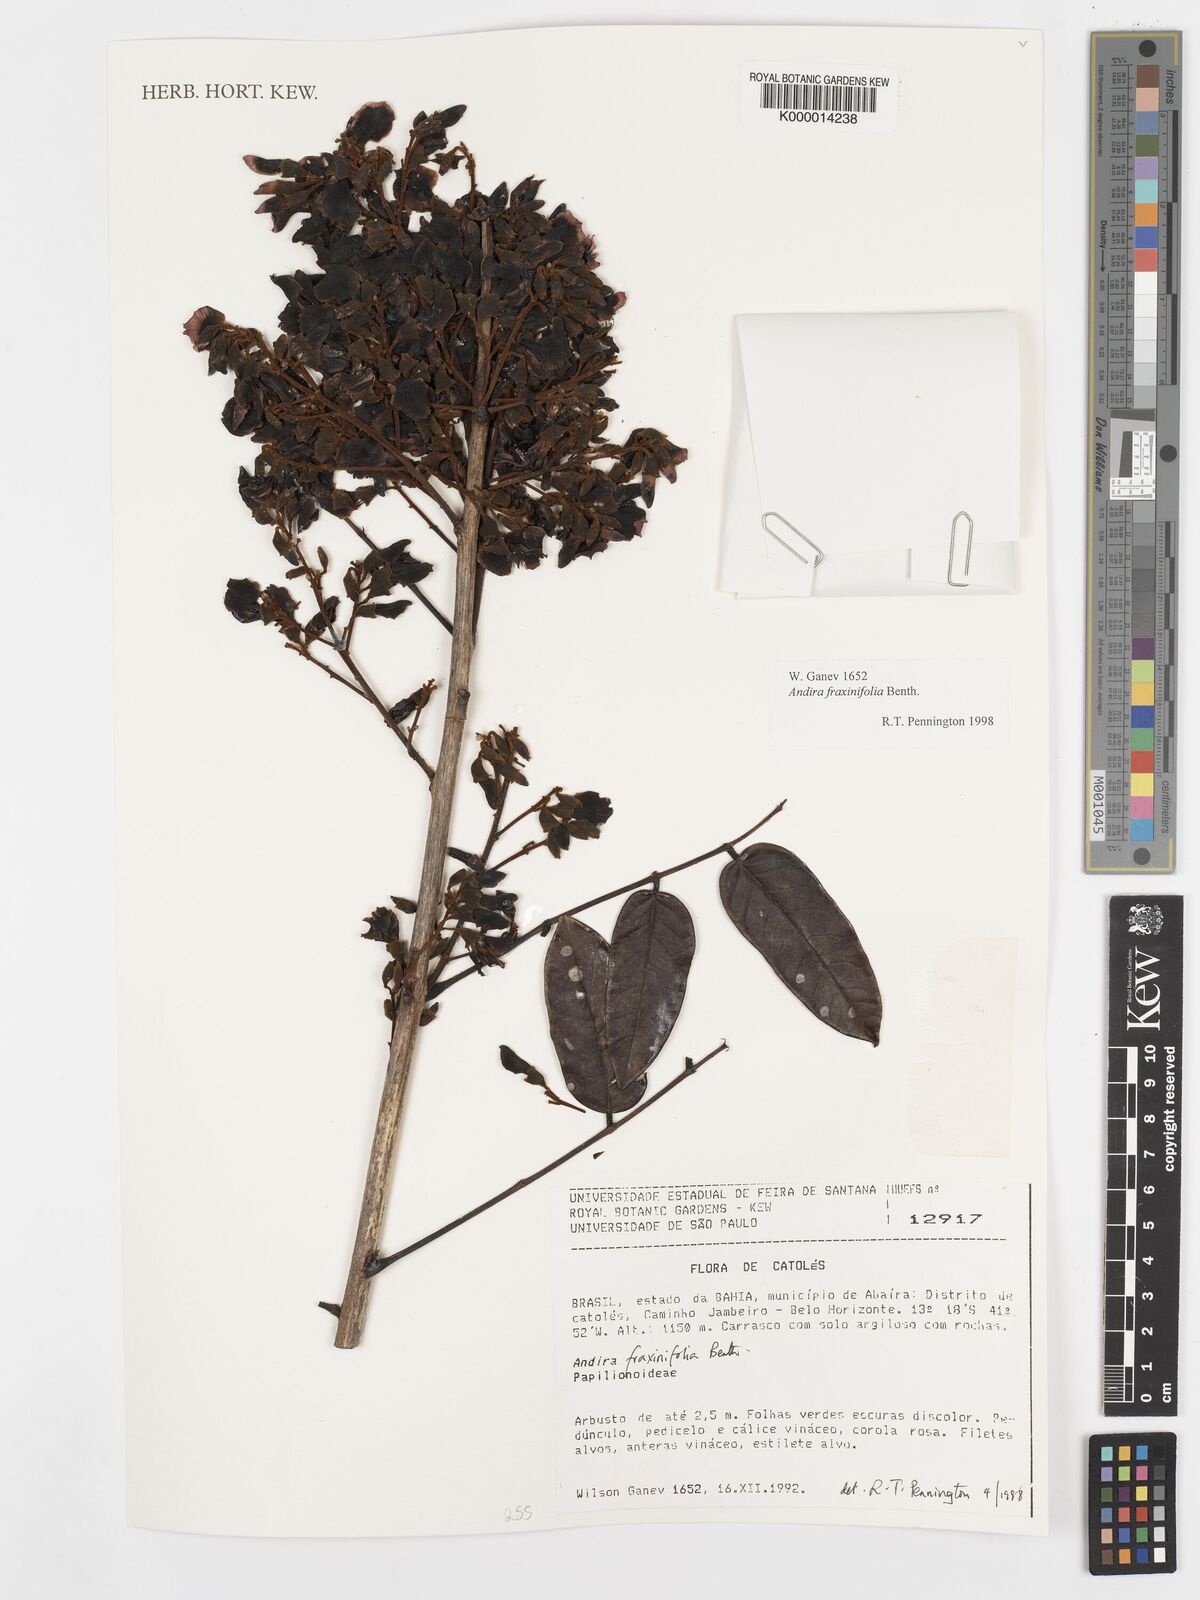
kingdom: Plantae
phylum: Tracheophyta
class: Magnoliopsida
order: Fabales
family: Fabaceae
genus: Andira
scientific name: Andira fraxinifolia
